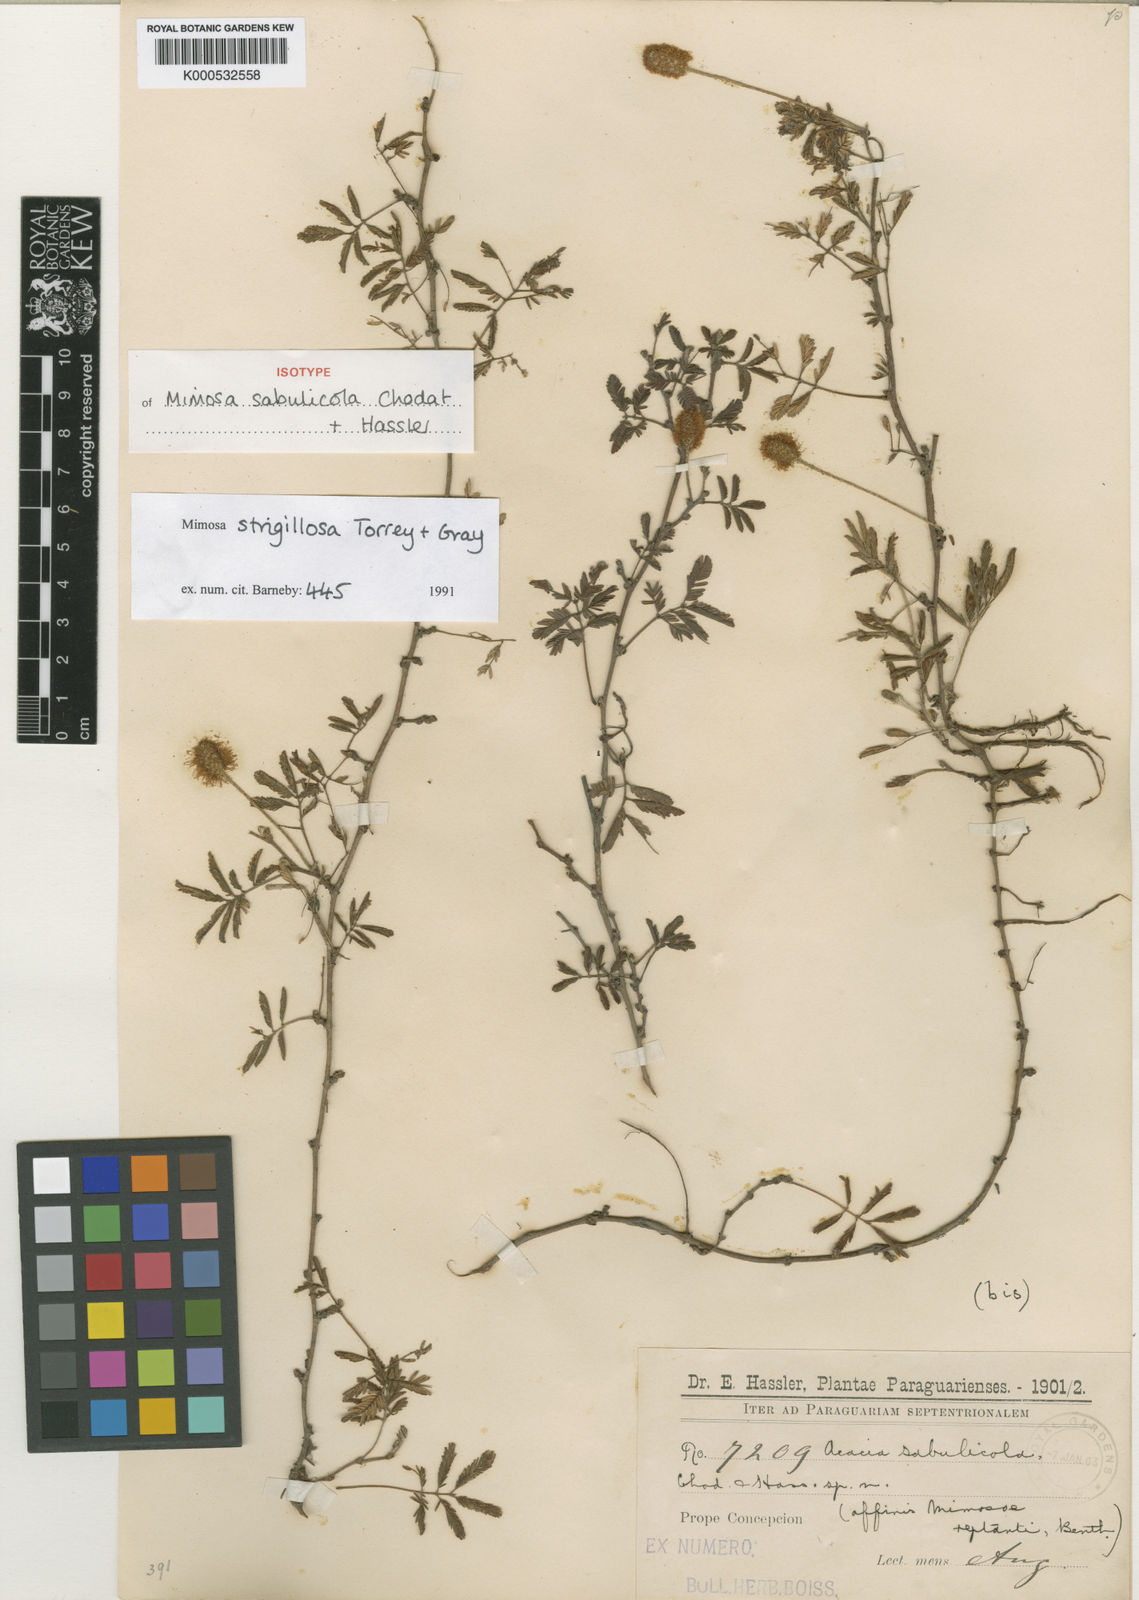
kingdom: Plantae
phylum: Tracheophyta
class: Magnoliopsida
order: Fabales
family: Fabaceae
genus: Mimosa
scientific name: Mimosa strigillosa
